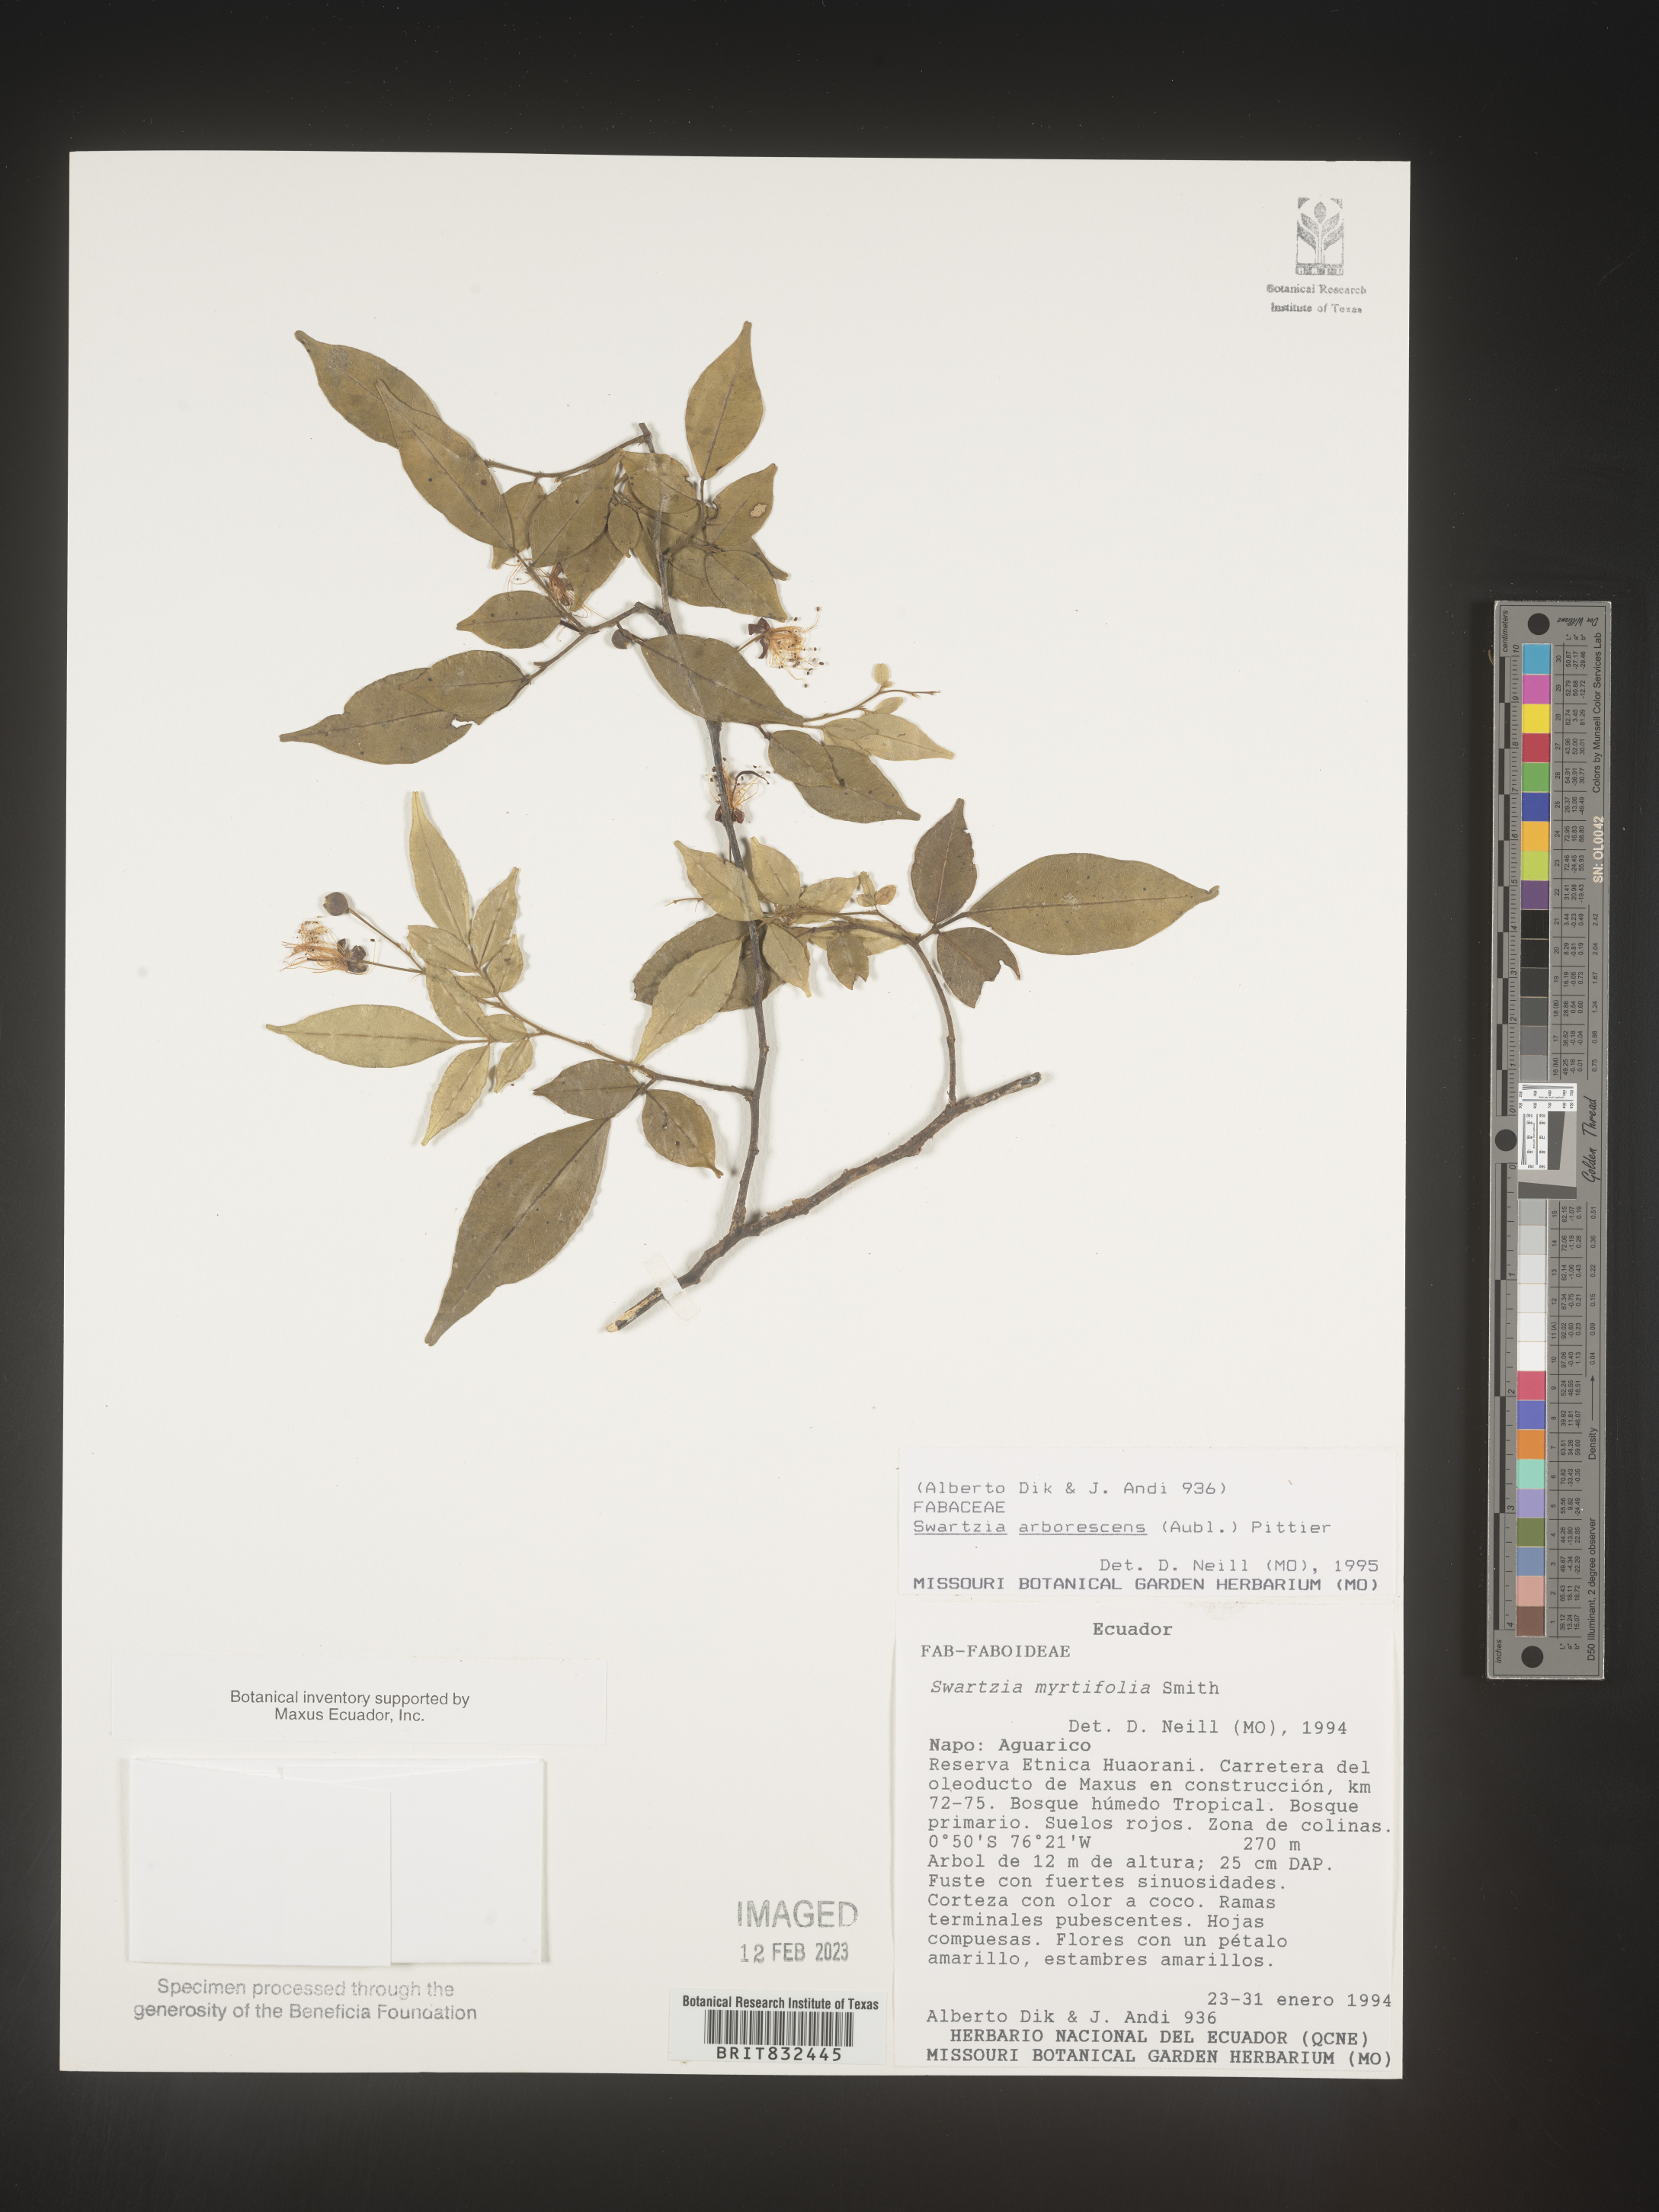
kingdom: Plantae
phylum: Tracheophyta
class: Magnoliopsida
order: Fabales
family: Fabaceae
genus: Swartzia
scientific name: Swartzia
